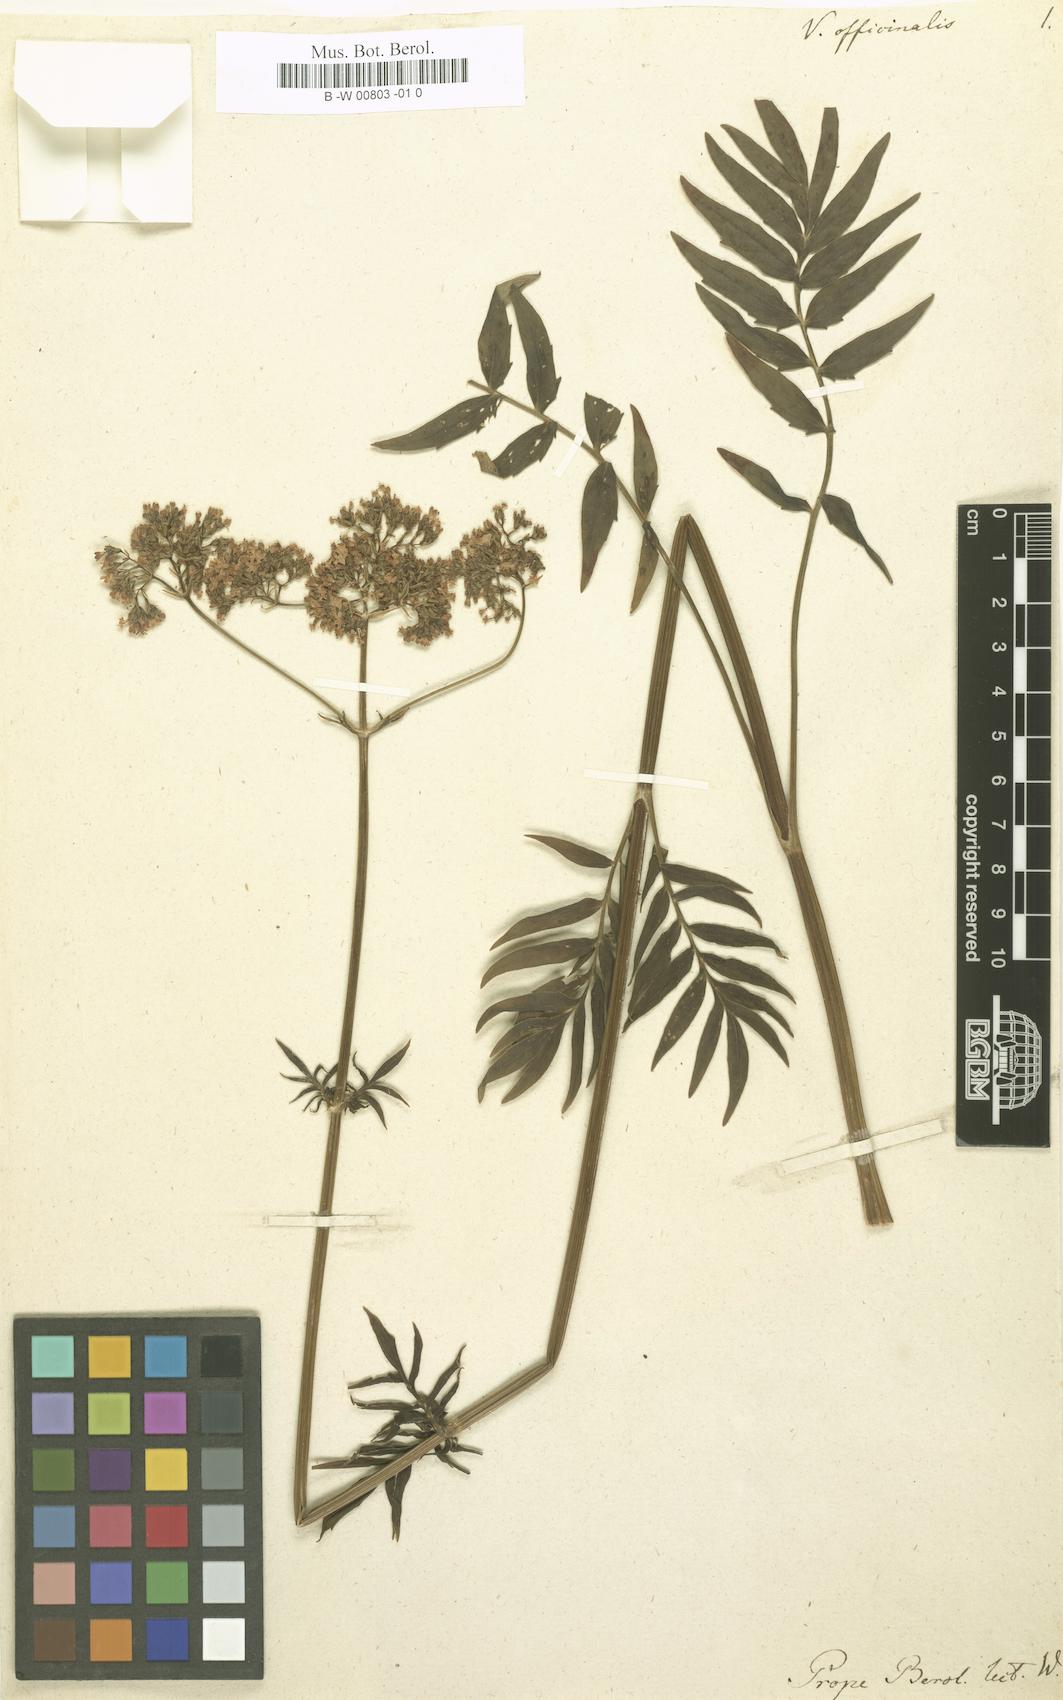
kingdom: Plantae
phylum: Tracheophyta
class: Magnoliopsida
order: Dipsacales
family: Caprifoliaceae
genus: Valeriana
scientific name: Valeriana officinalis
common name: Common valerian
